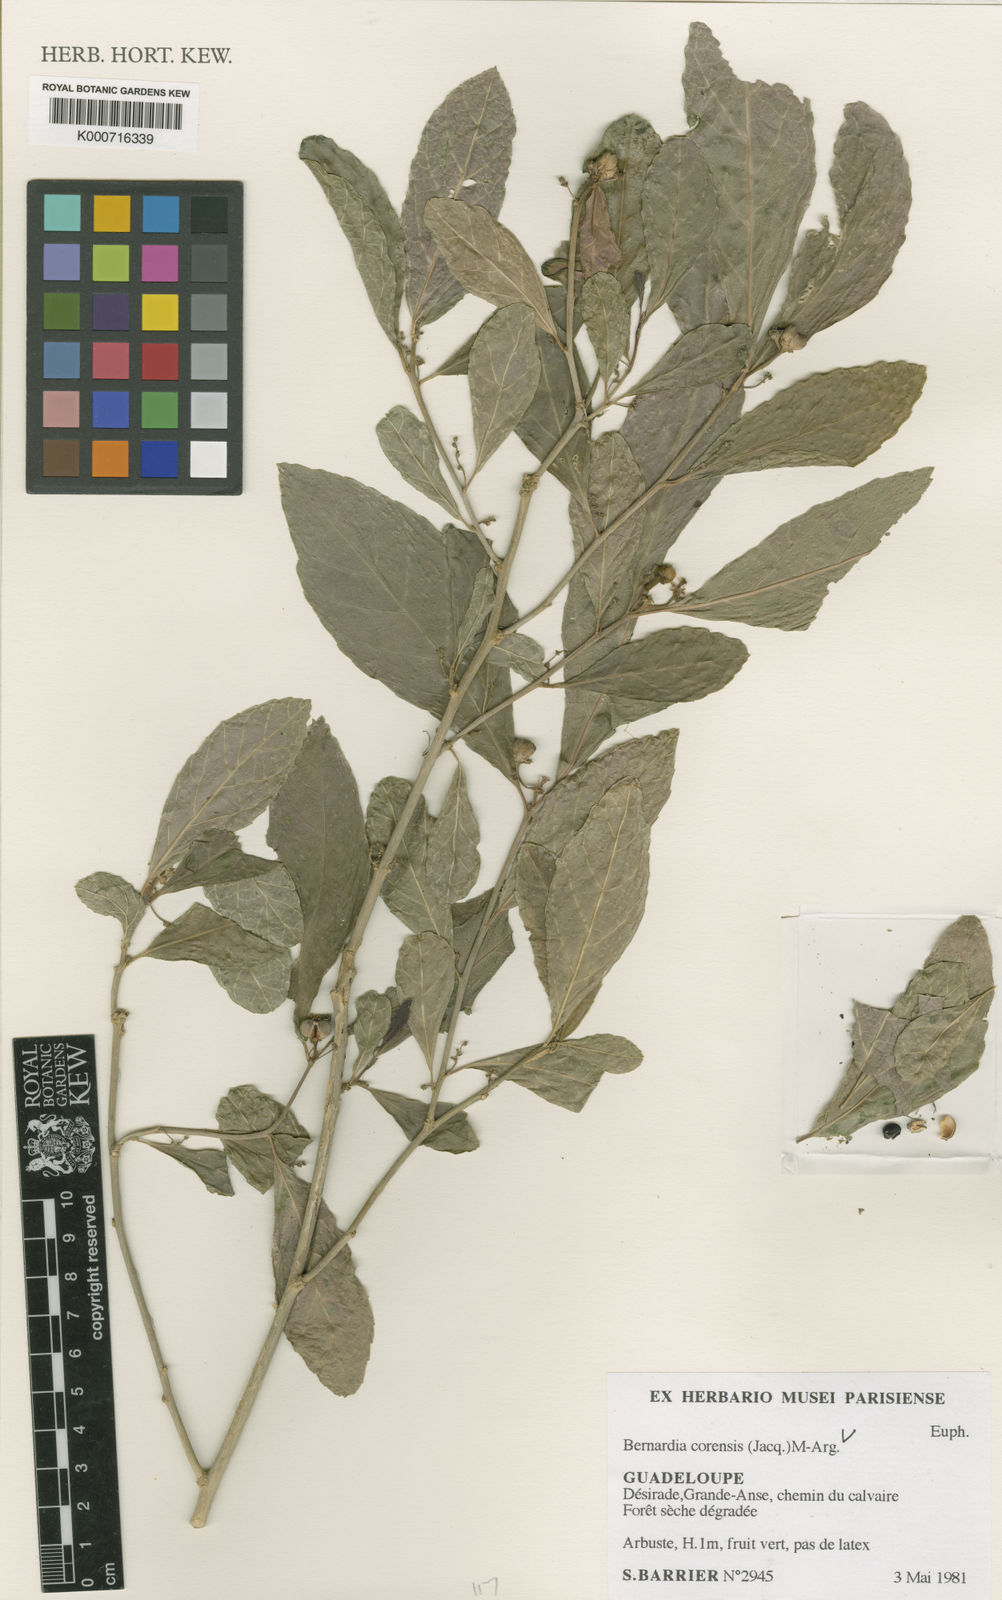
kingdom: Plantae
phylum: Tracheophyta
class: Magnoliopsida
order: Malpighiales
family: Euphorbiaceae
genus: Bernardia
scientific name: Bernardia
